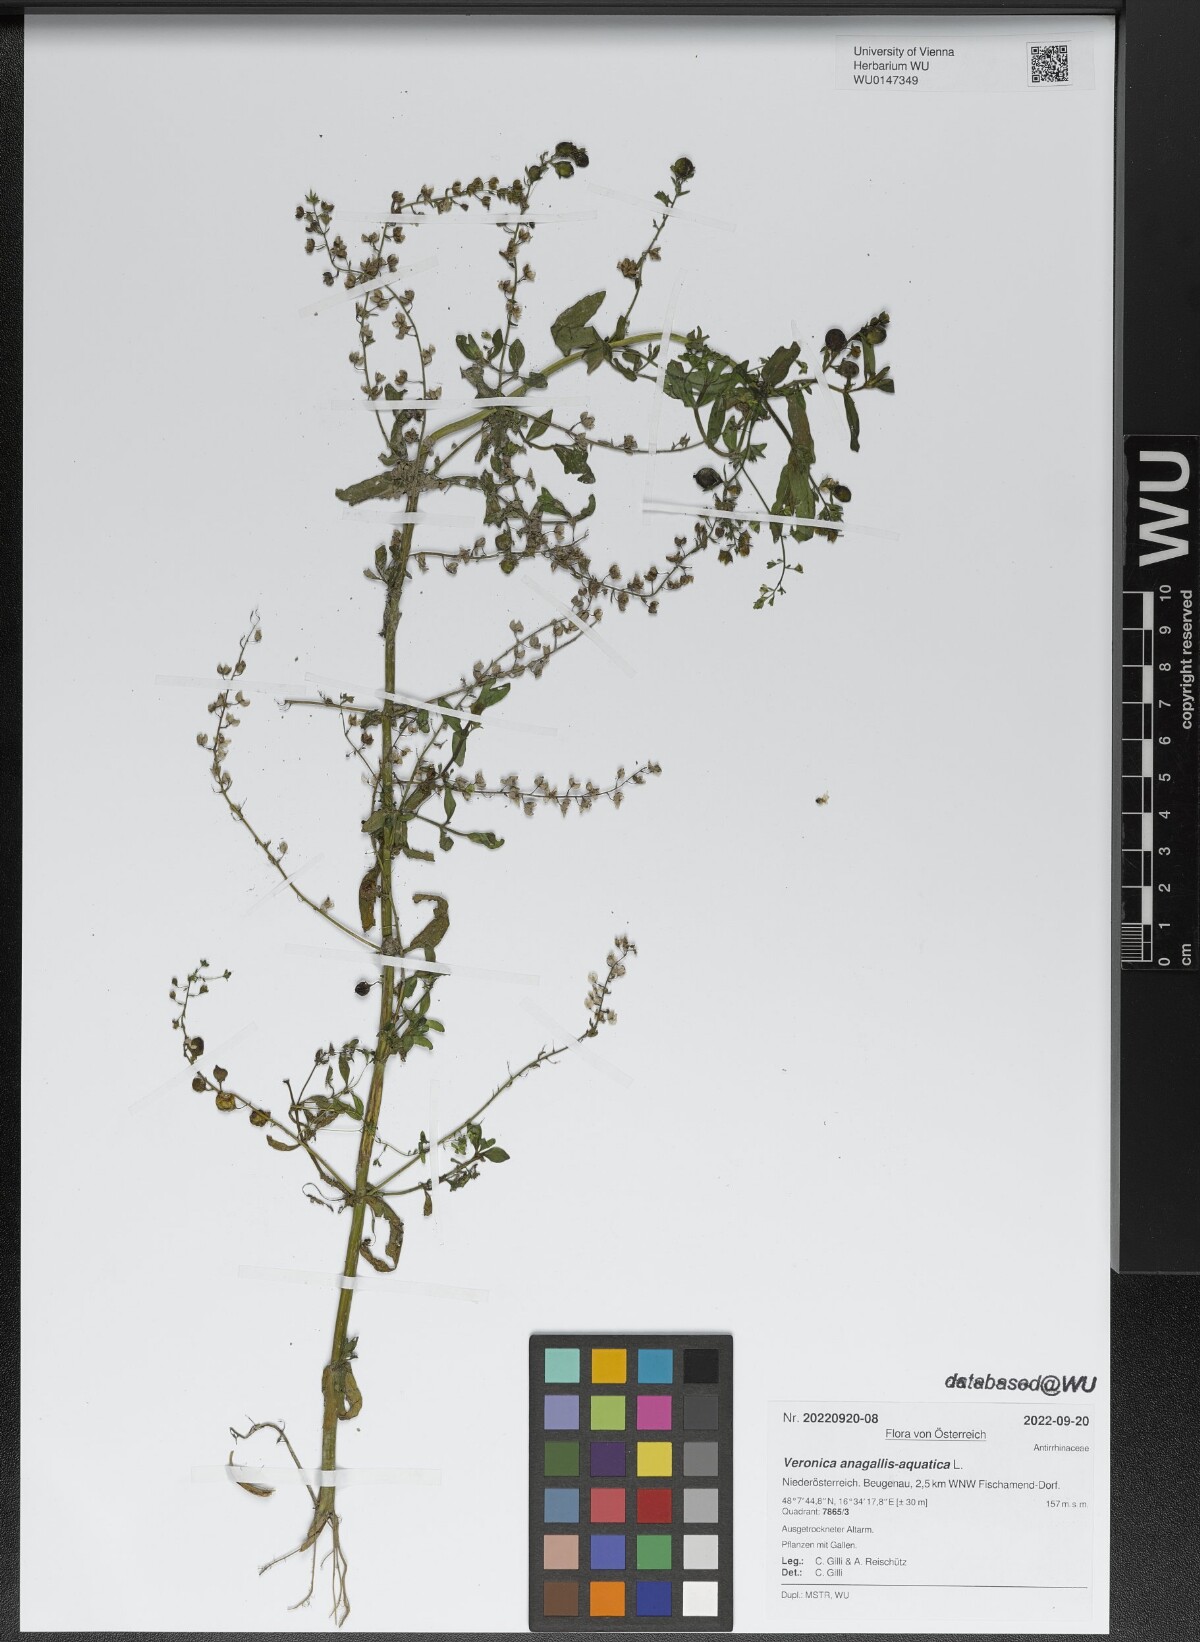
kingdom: Plantae
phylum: Tracheophyta
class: Magnoliopsida
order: Lamiales
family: Plantaginaceae
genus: Veronica
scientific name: Veronica anagallis-aquatica
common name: Water speedwell
